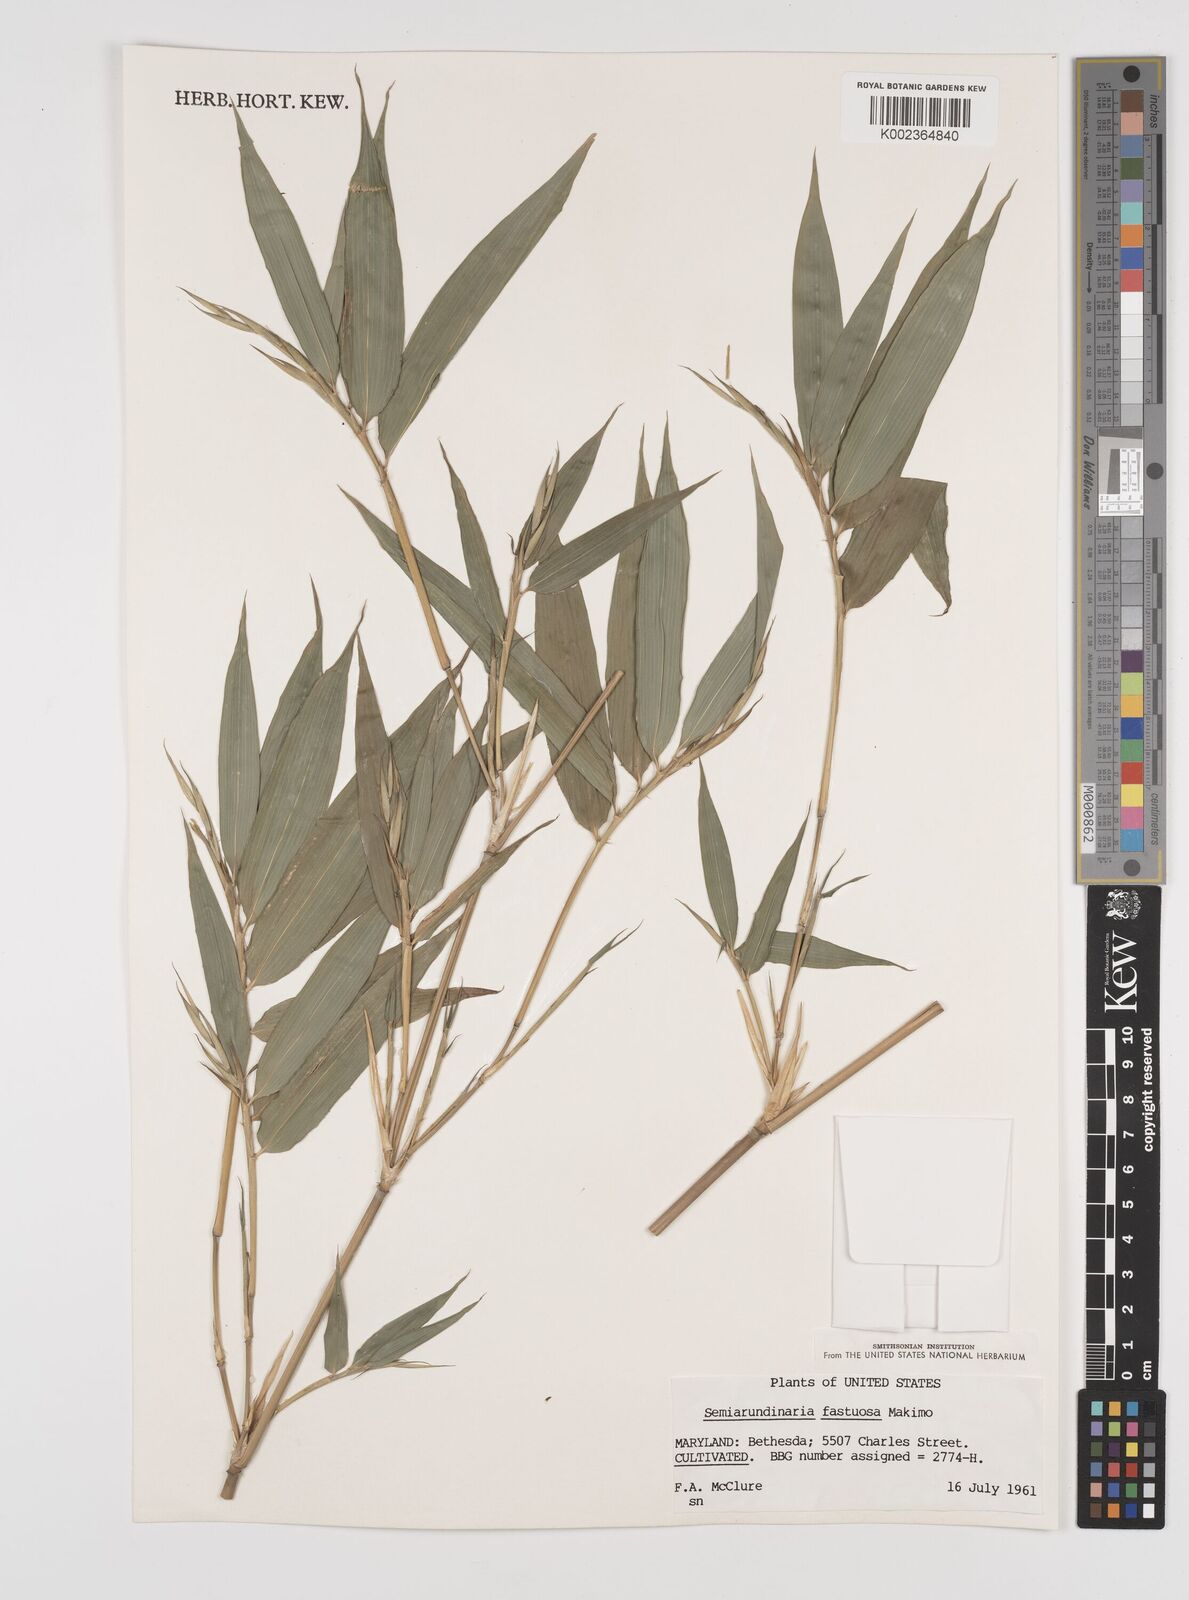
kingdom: Plantae
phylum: Tracheophyta
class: Liliopsida
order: Poales
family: Poaceae
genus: Semiarundinaria
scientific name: Semiarundinaria fastuosa
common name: Narihira bamboo
